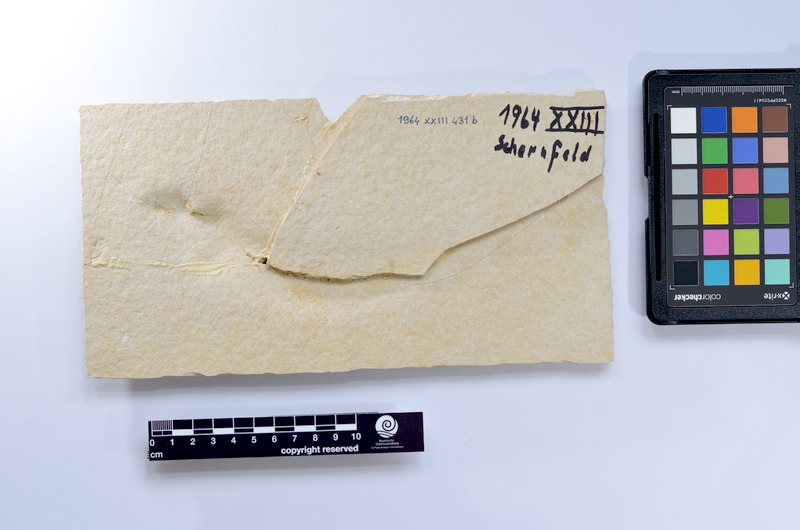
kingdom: Animalia
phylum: Chordata
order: Elopiformes
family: Anaethalionidae
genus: Anaethalion
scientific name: Anaethalion knorri
